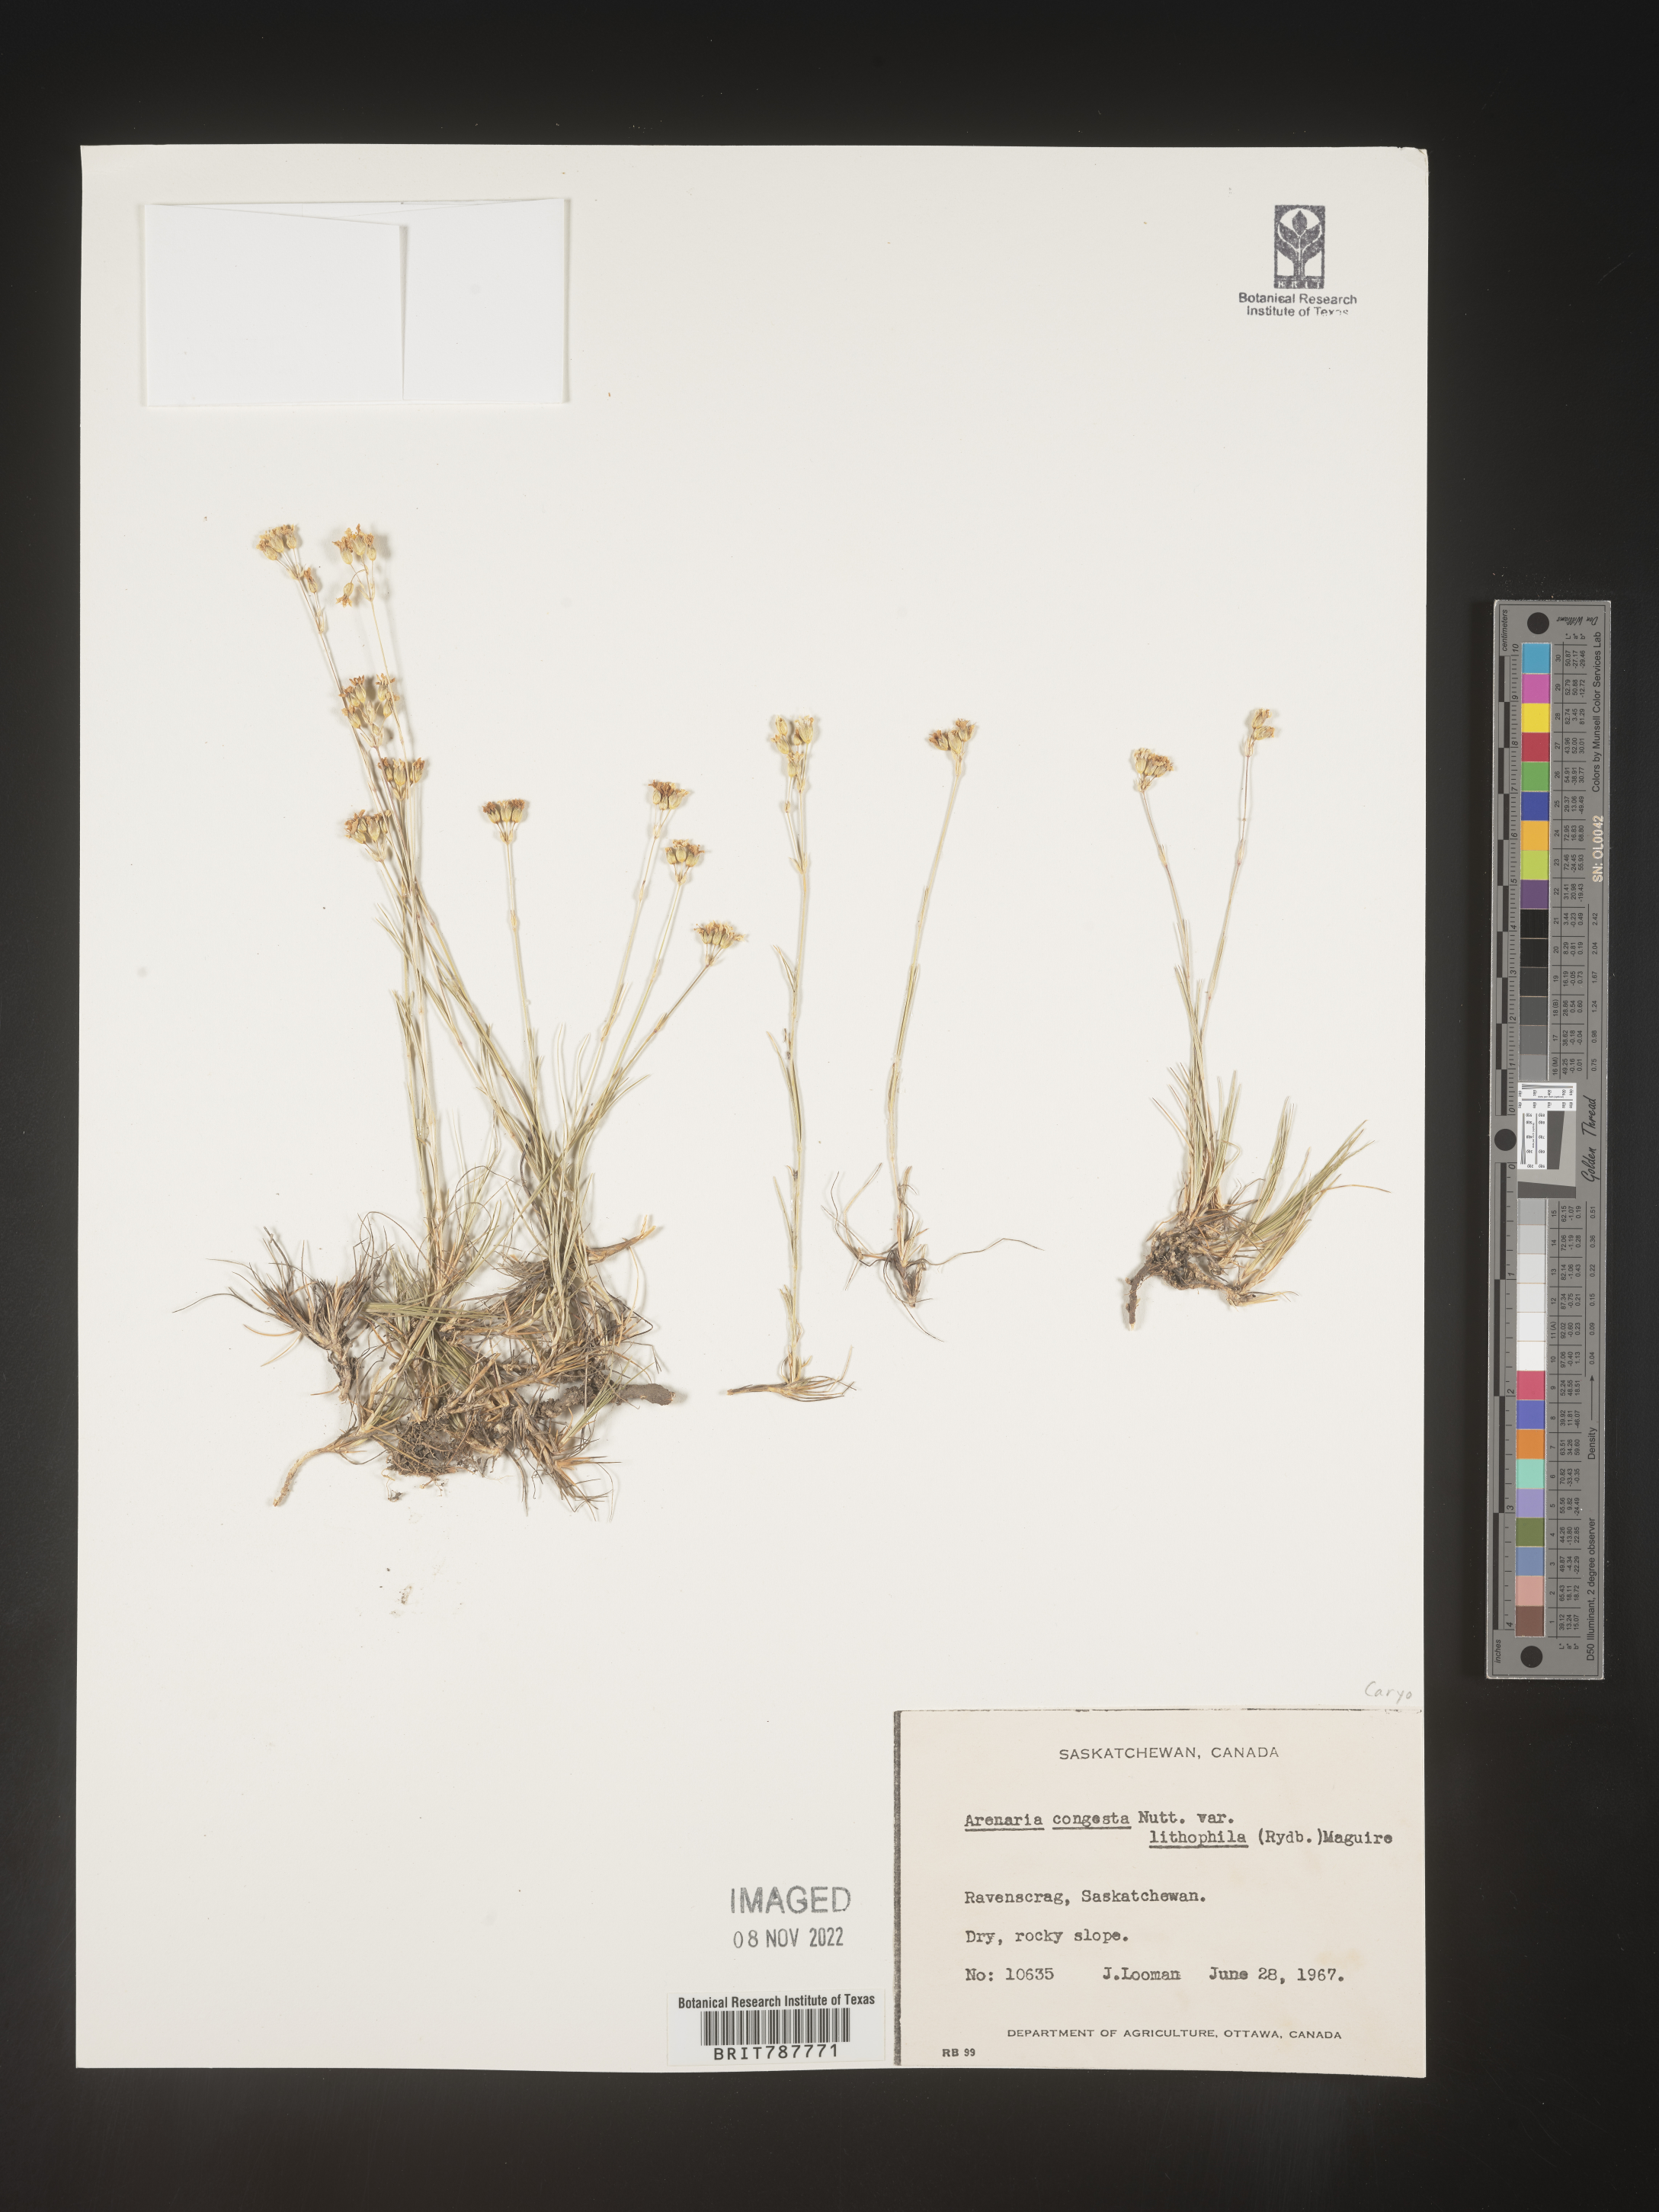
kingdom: Plantae
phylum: Tracheophyta
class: Magnoliopsida
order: Caryophyllales
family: Caryophyllaceae
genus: Eremogone
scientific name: Eremogone congesta
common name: Ballhead sandwort
